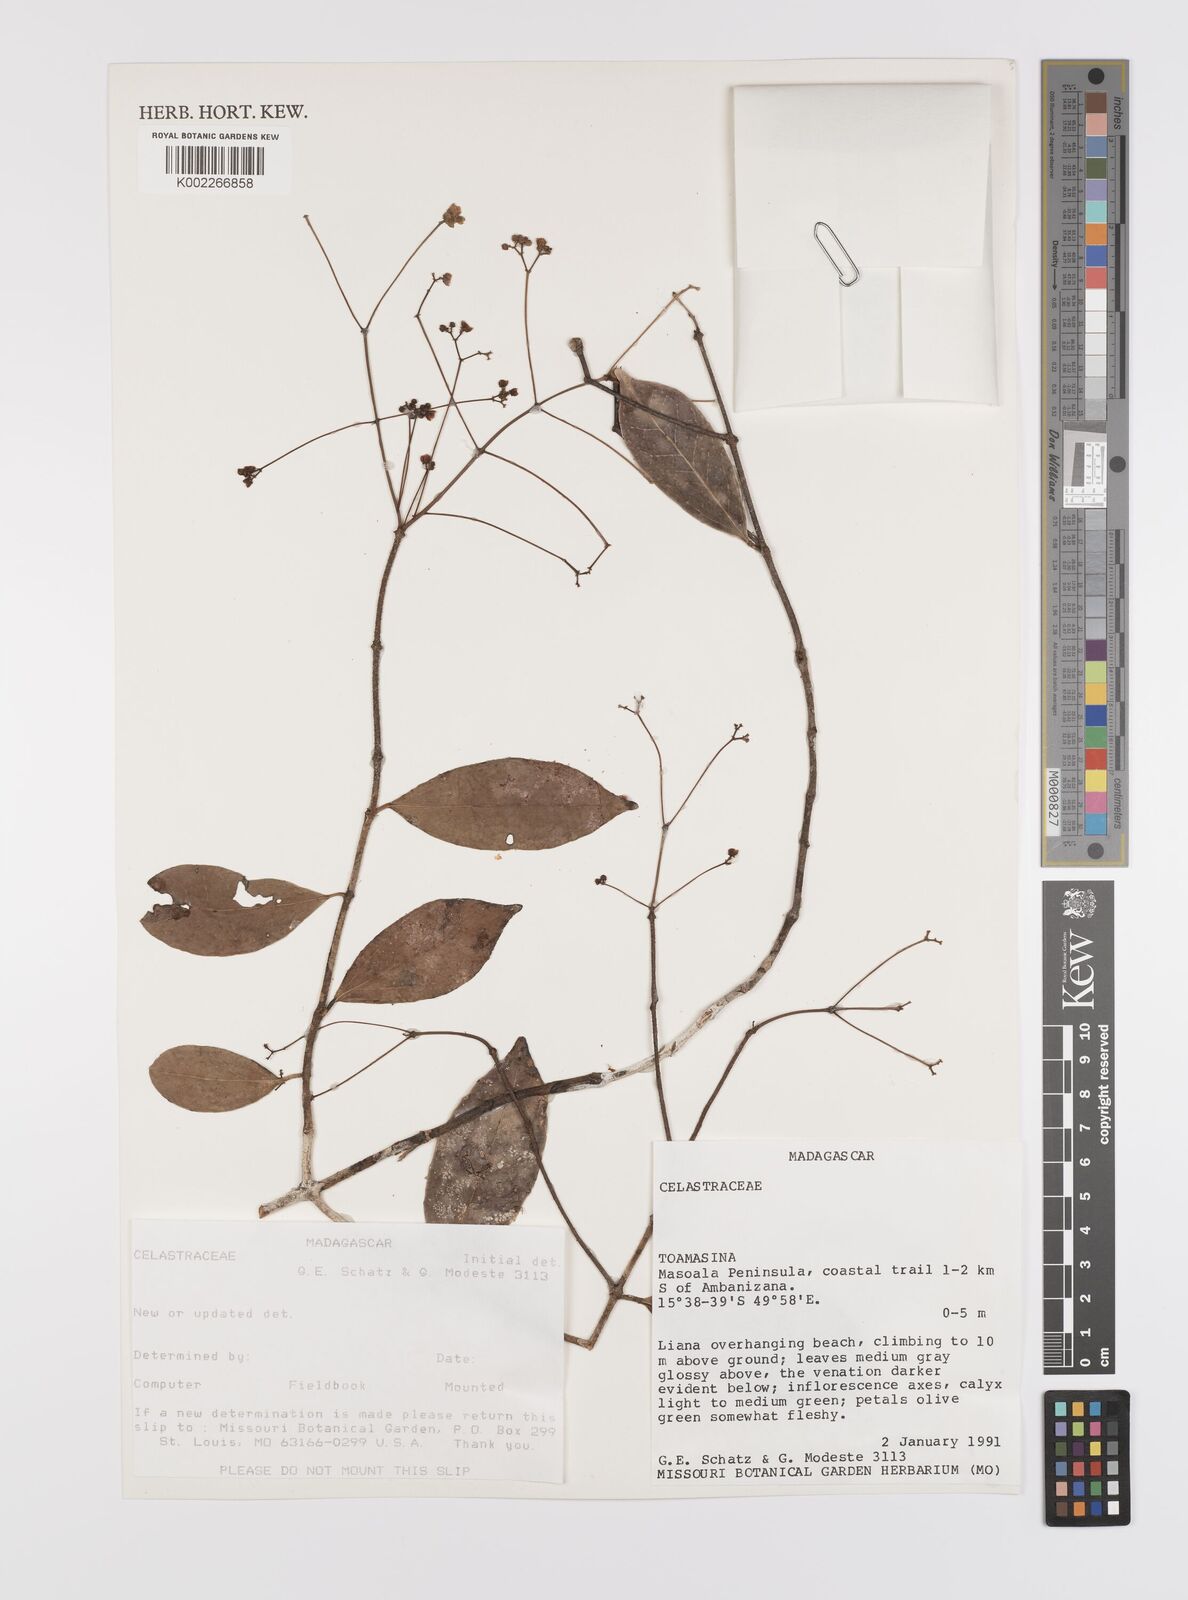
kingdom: Plantae
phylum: Tracheophyta
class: Magnoliopsida
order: Celastrales
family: Celastraceae
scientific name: Celastraceae
